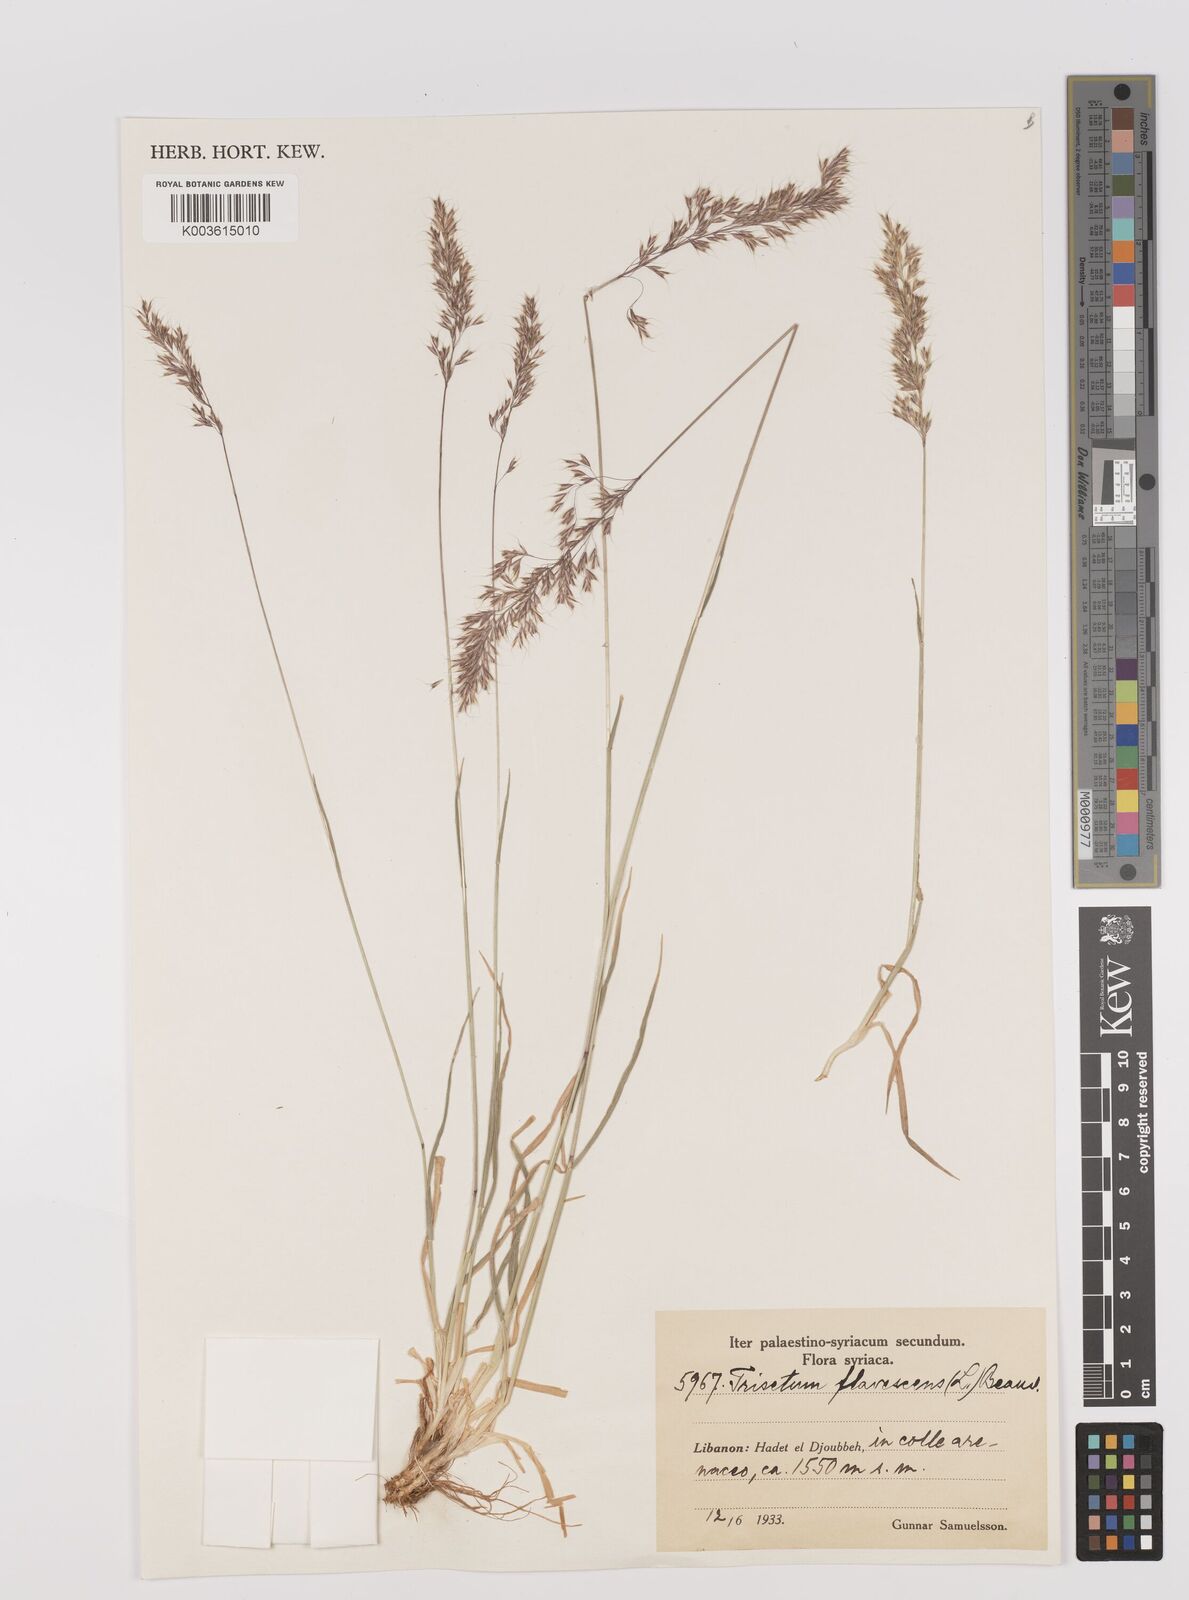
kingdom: Plantae
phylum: Tracheophyta
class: Liliopsida
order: Poales
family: Poaceae
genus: Trisetum
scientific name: Trisetum flavescens
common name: Yellow oat-grass
